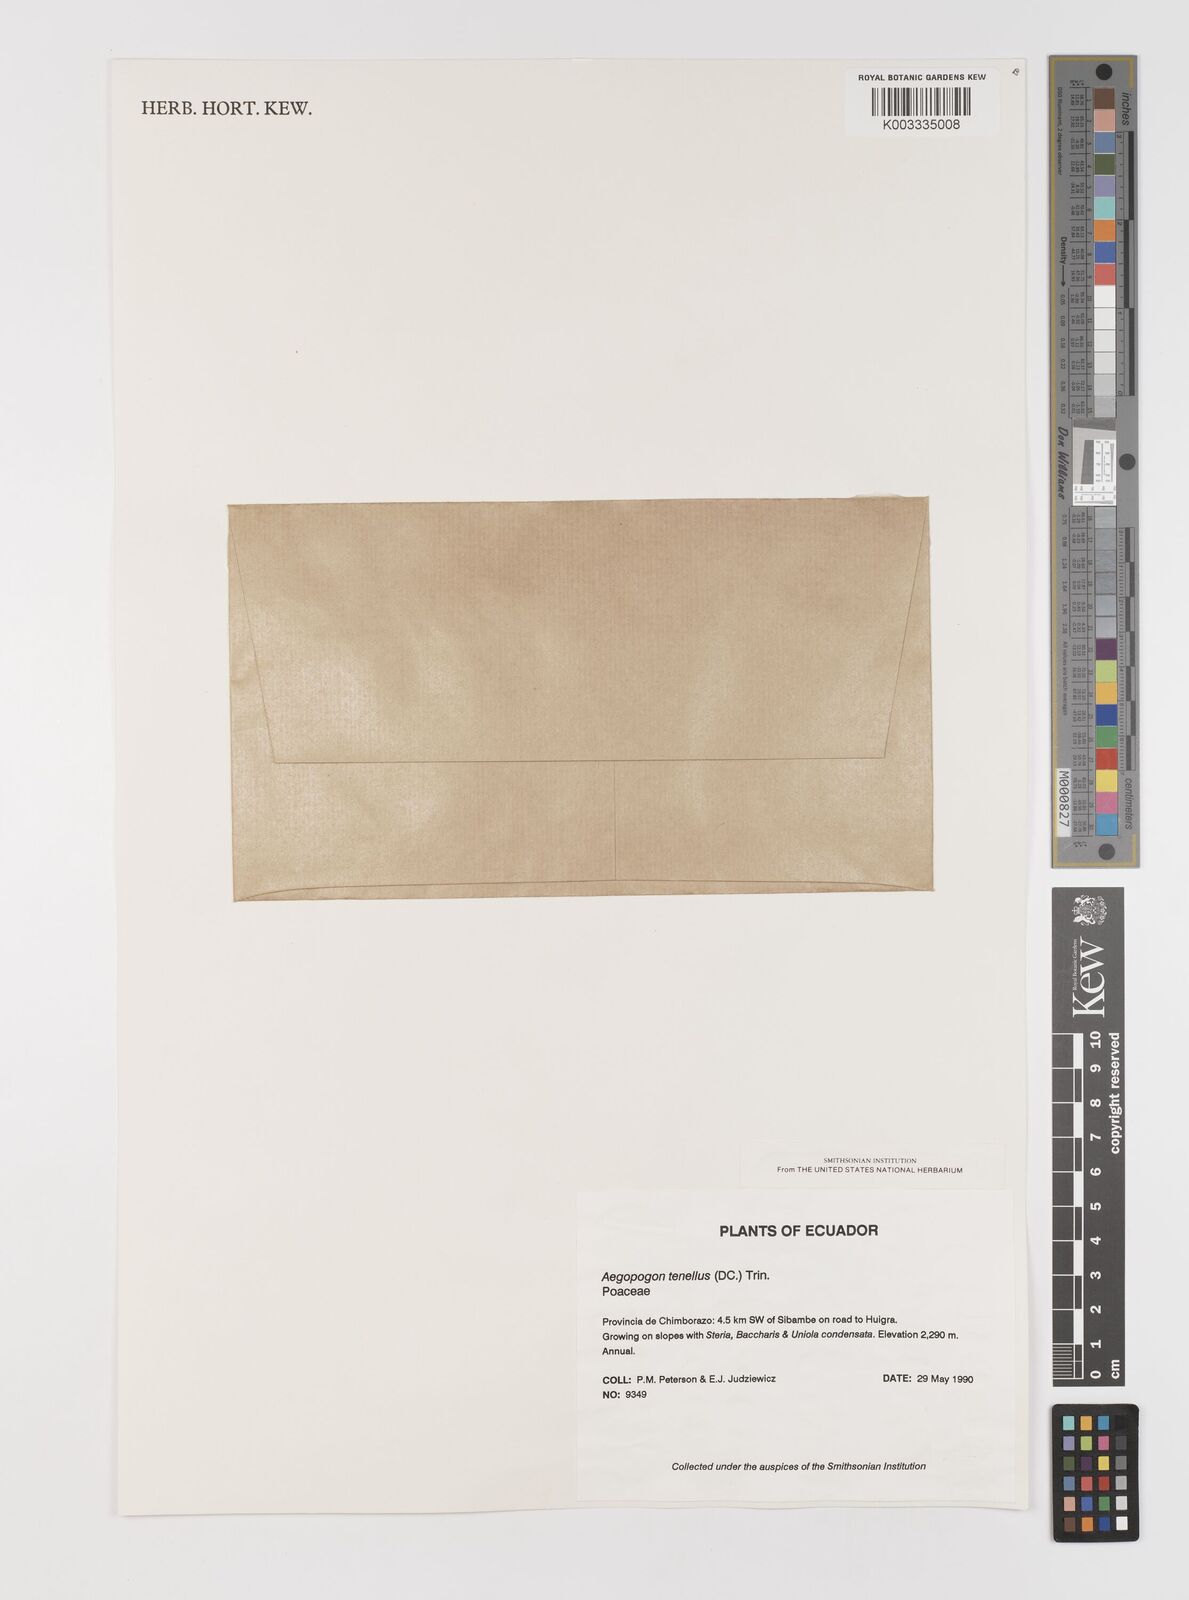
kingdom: Plantae
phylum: Tracheophyta
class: Liliopsida
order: Poales
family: Poaceae
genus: Muhlenbergia
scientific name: Muhlenbergia cenchroides
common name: Relaxgrass
